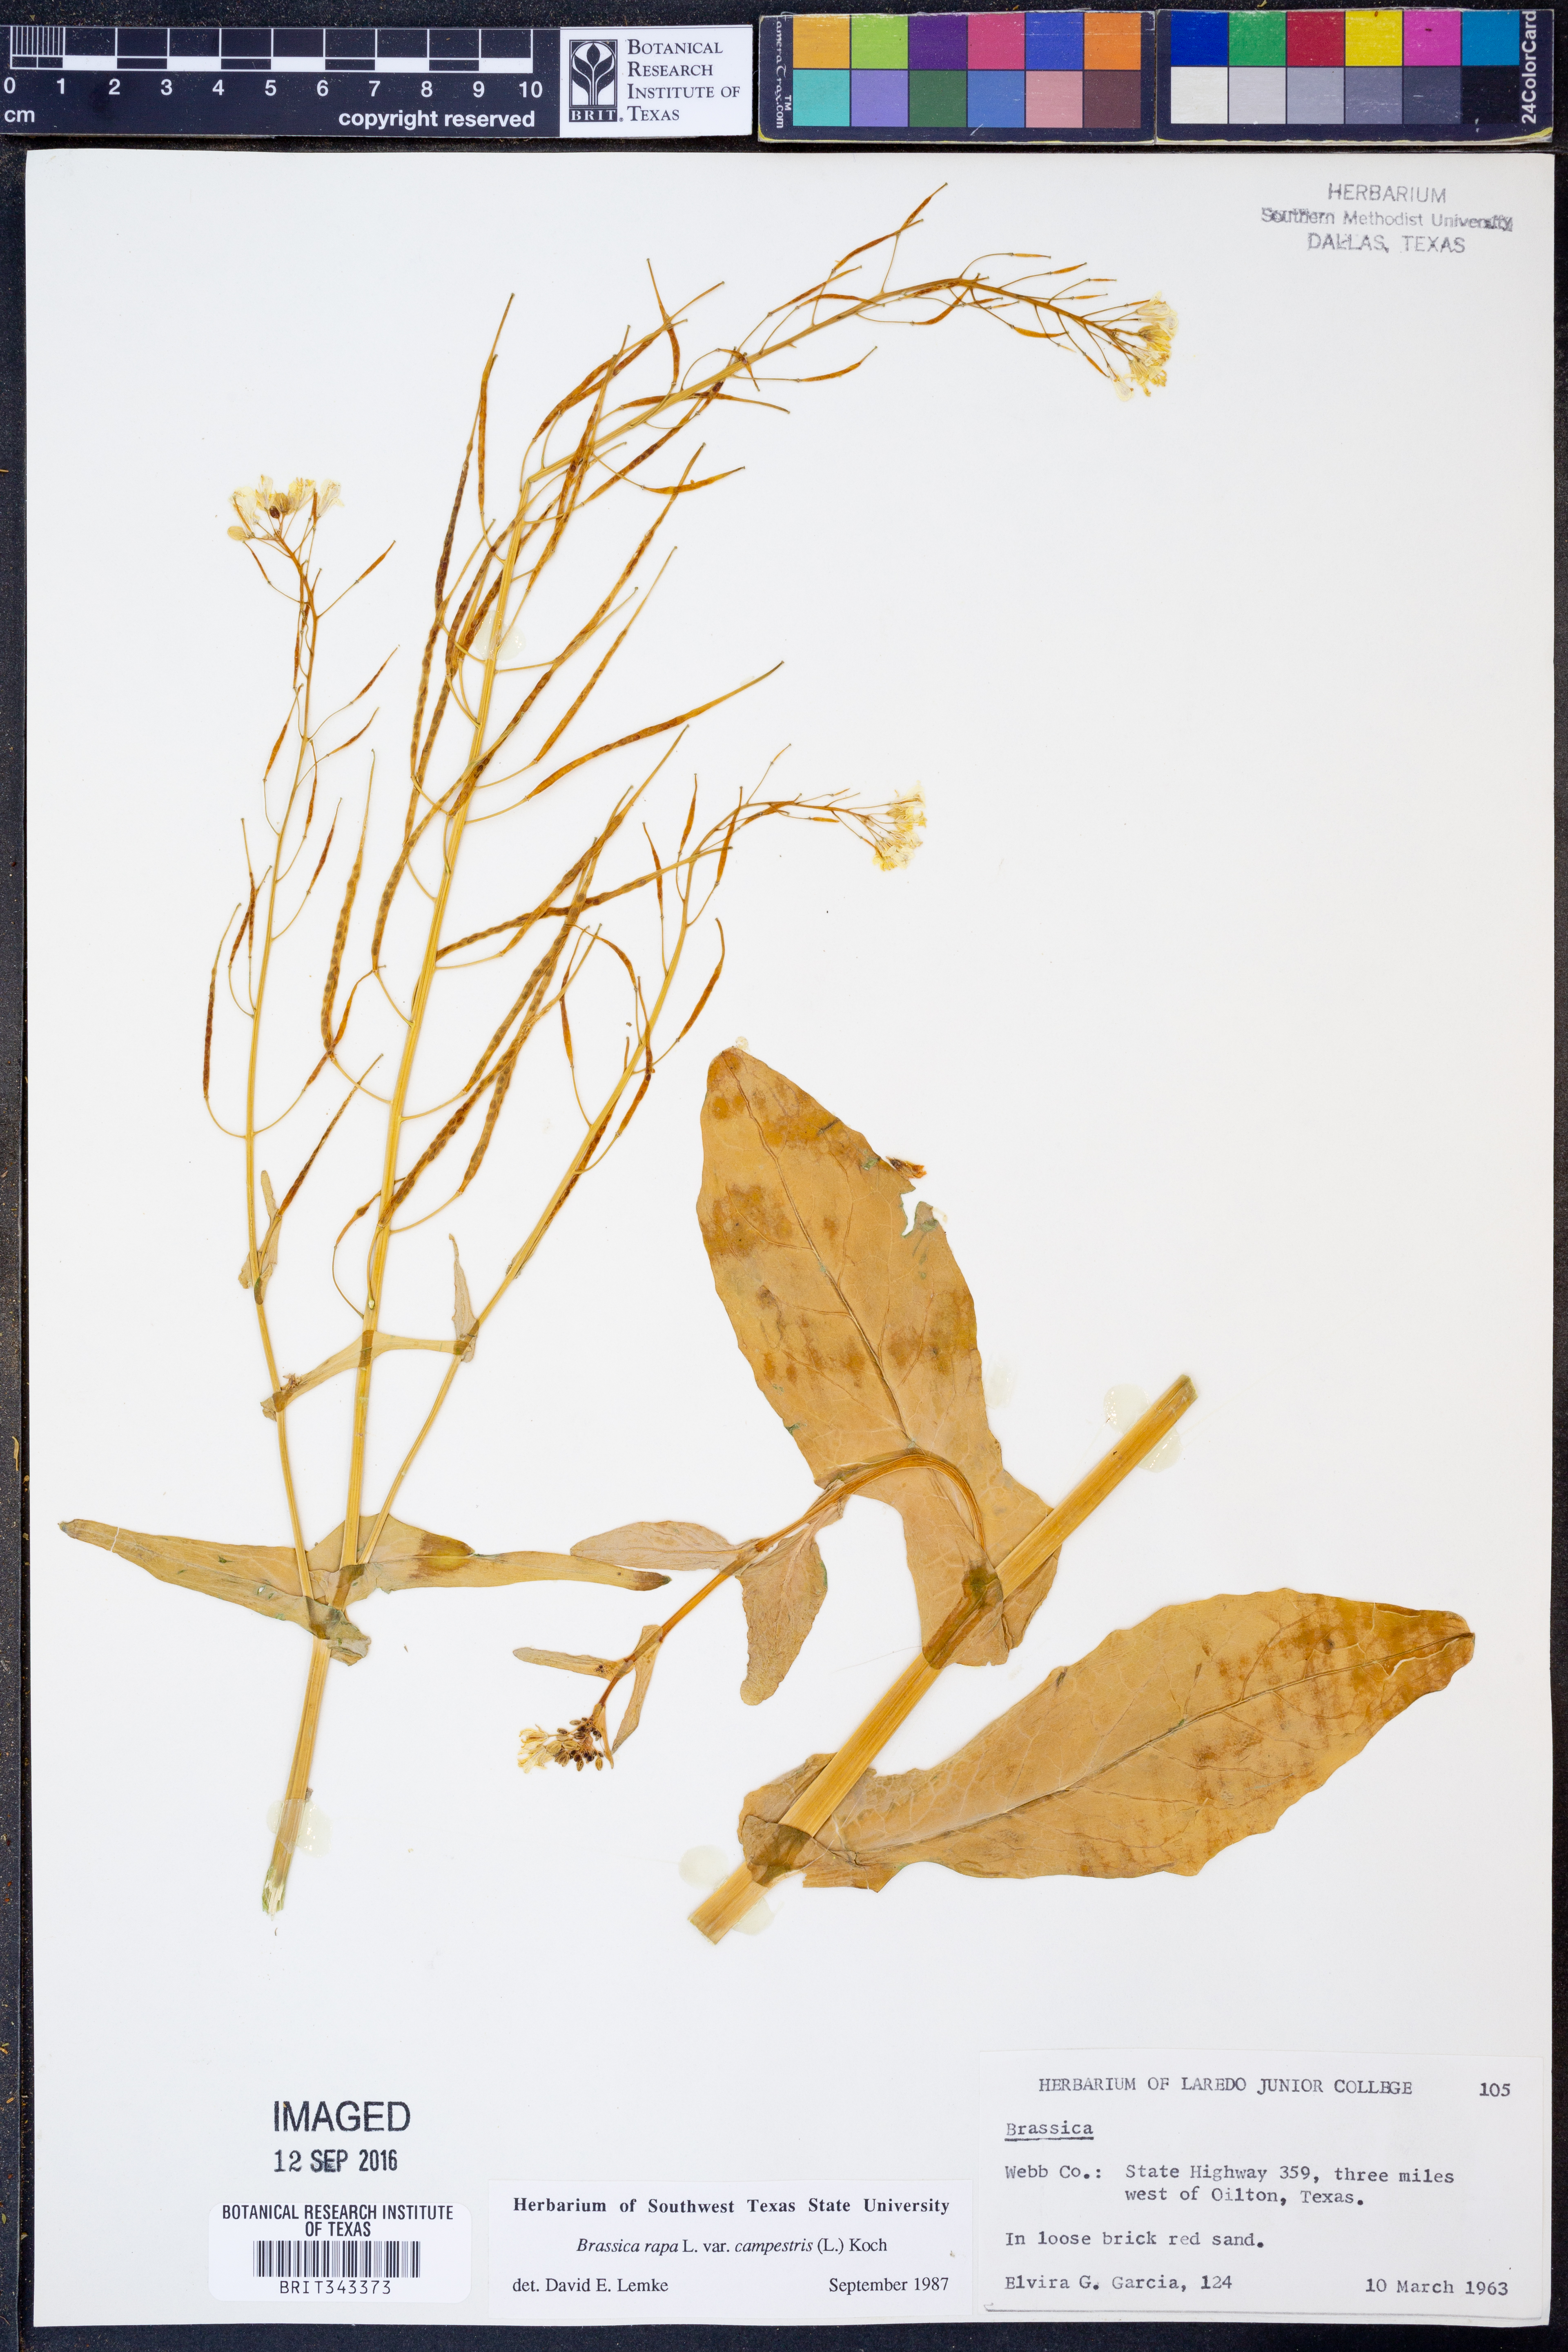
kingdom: Plantae
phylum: Tracheophyta
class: Magnoliopsida
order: Brassicales
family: Brassicaceae
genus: Brassica
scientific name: Brassica rapa
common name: Field mustard
